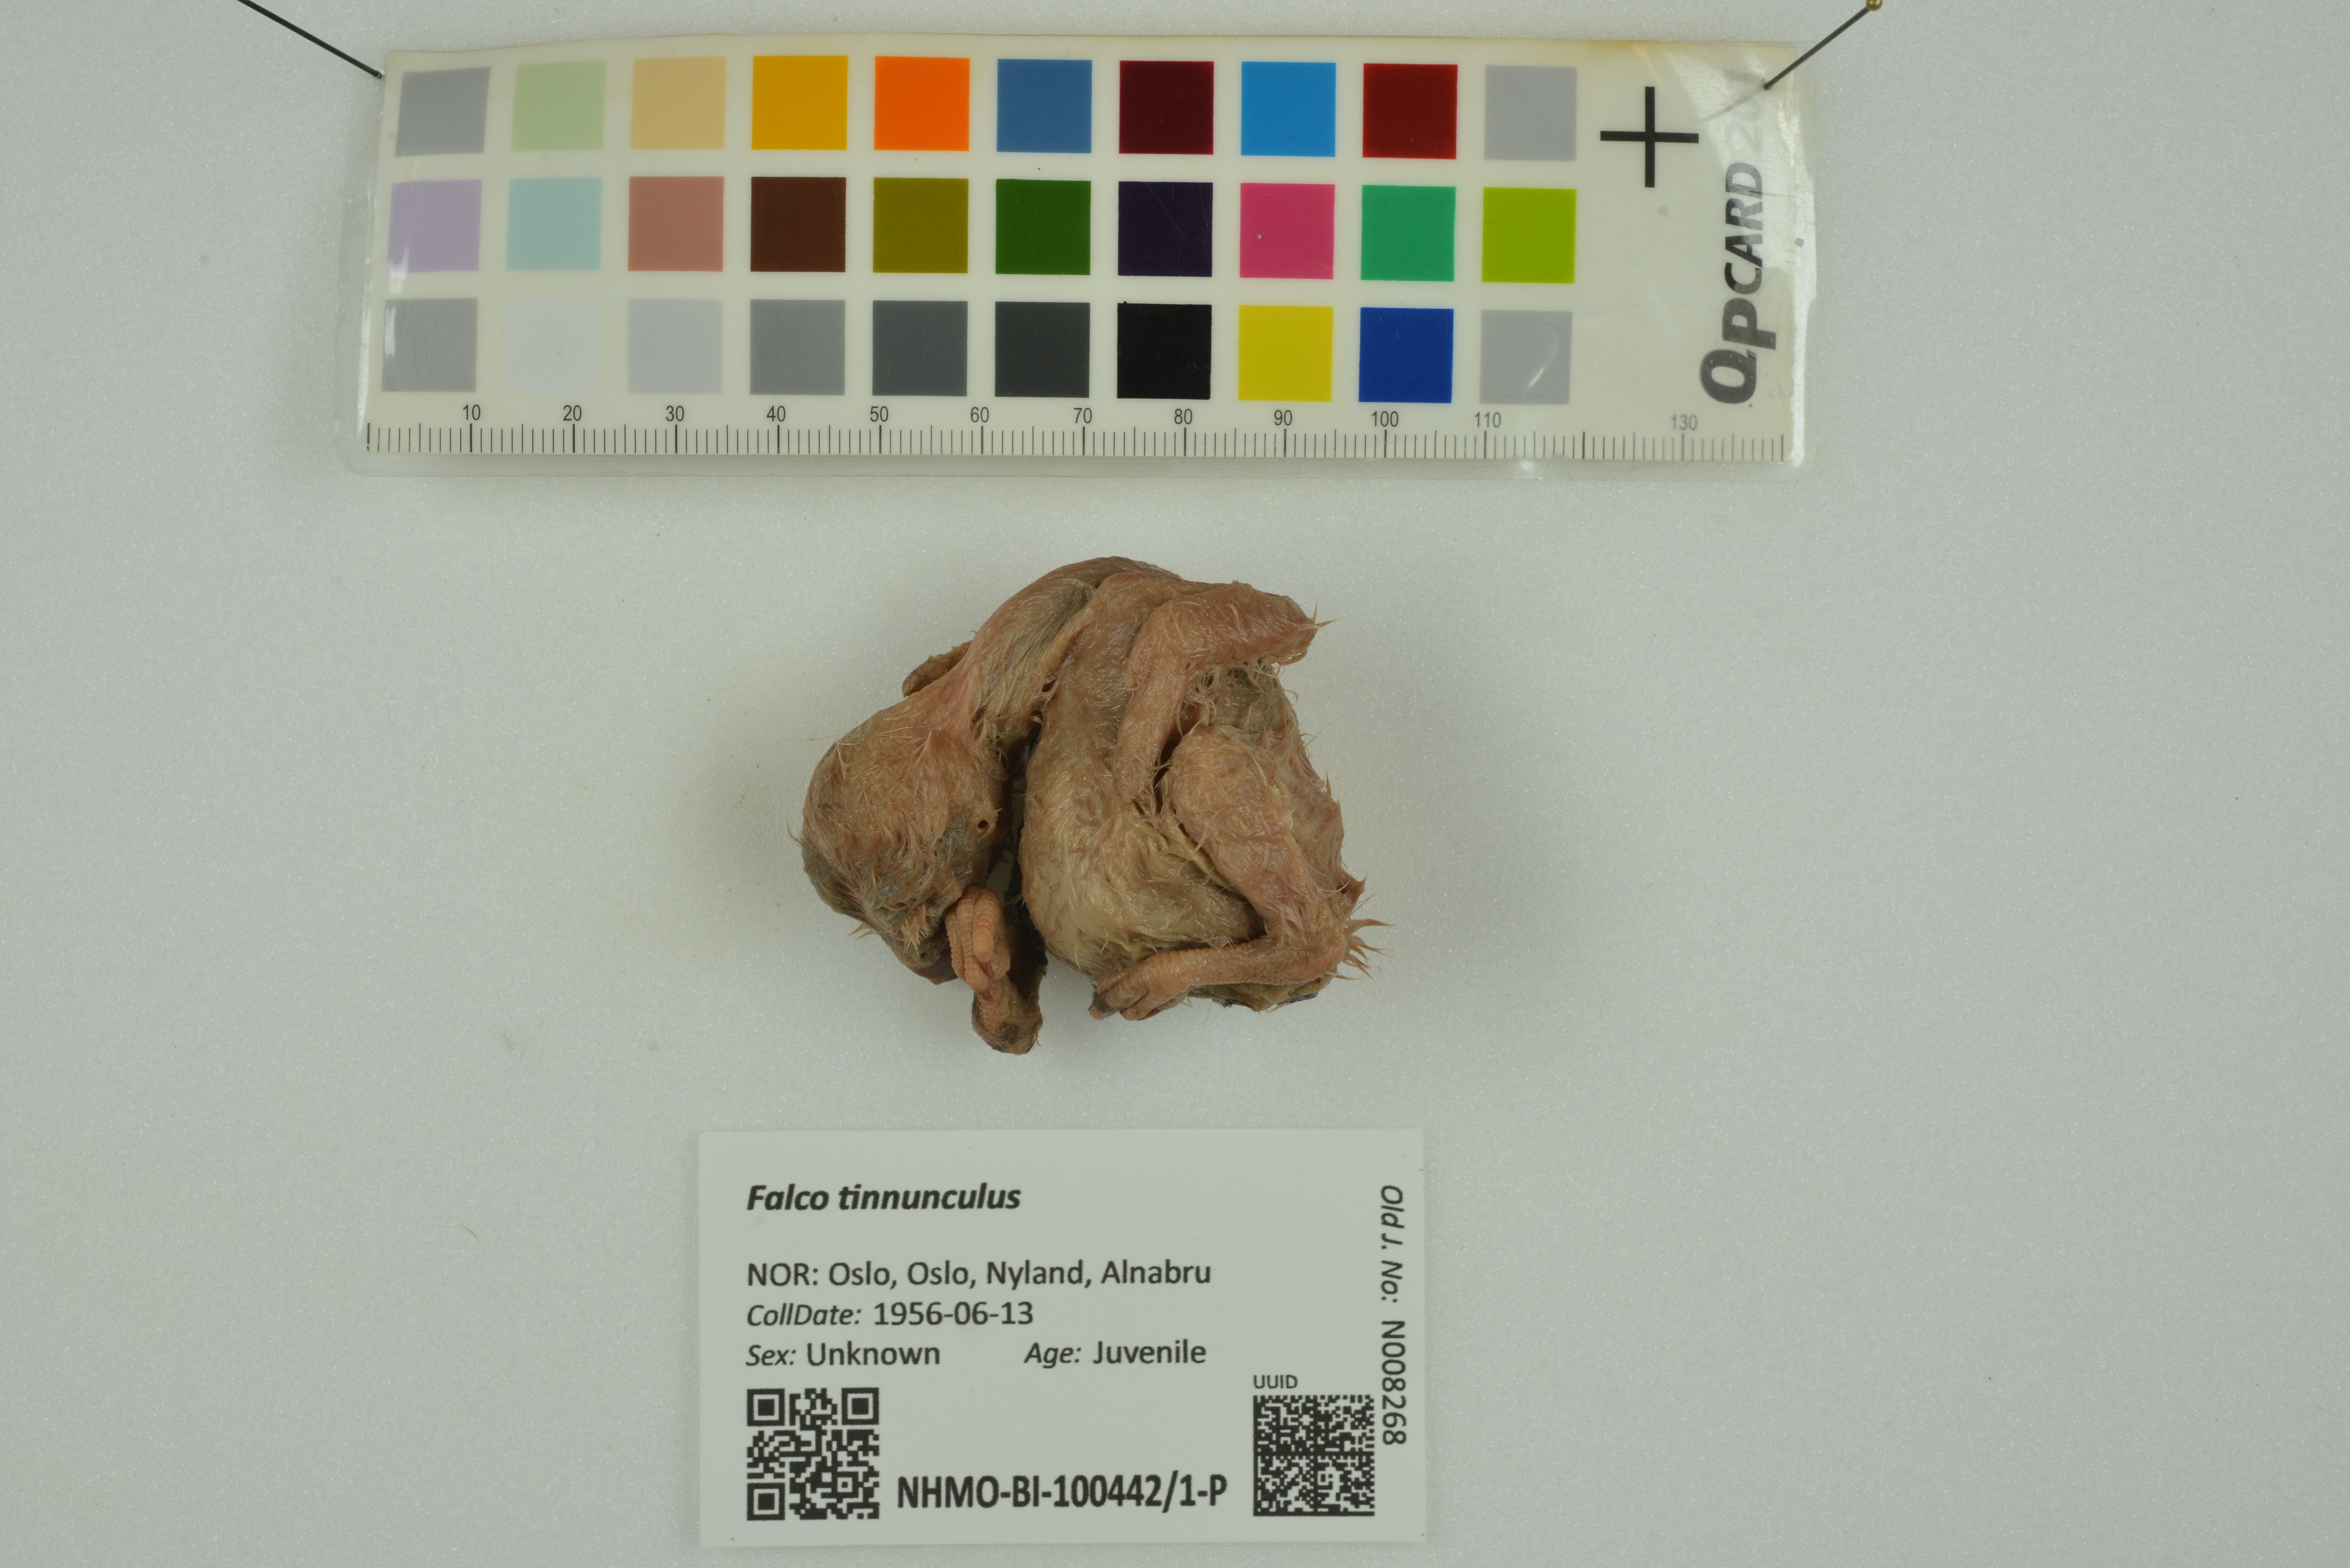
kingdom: Animalia
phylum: Chordata
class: Aves
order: Falconiformes
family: Falconidae
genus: Falco
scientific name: Falco tinnunculus
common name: Common kestrel
